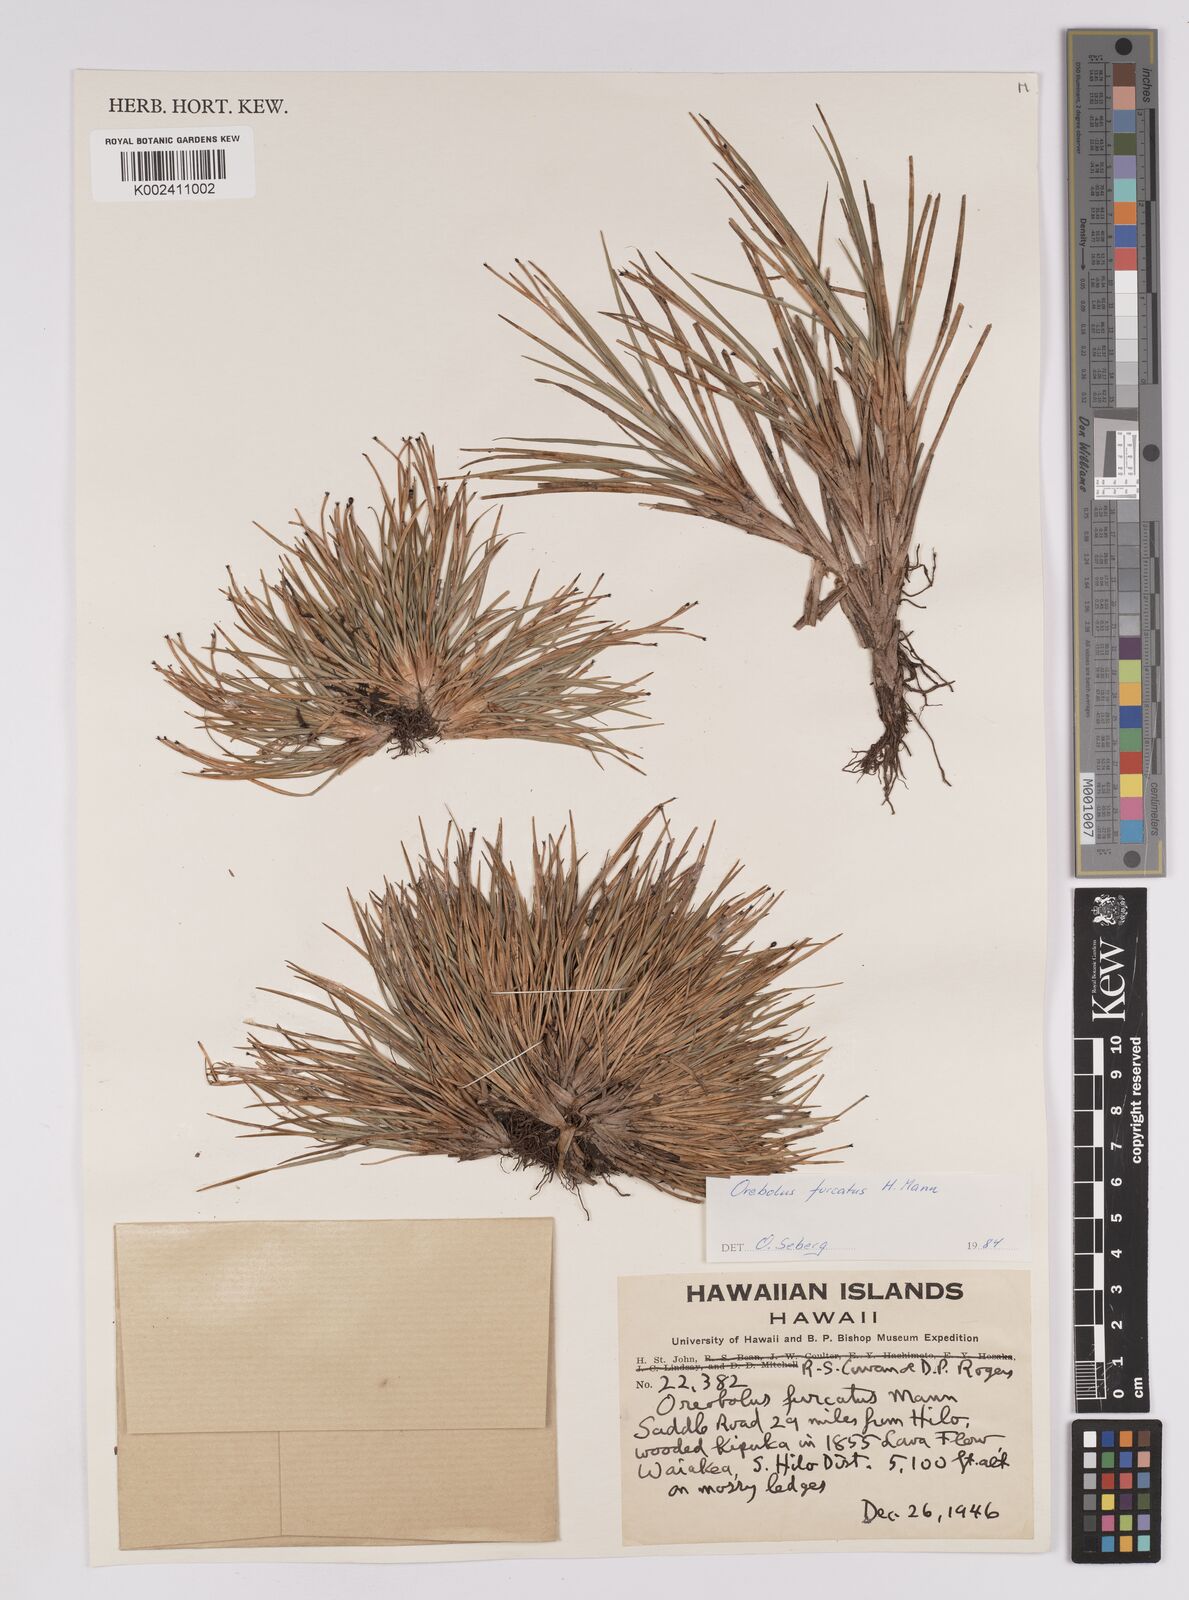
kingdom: Plantae
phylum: Tracheophyta
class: Liliopsida
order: Poales
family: Cyperaceae
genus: Oreobolus
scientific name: Oreobolus
